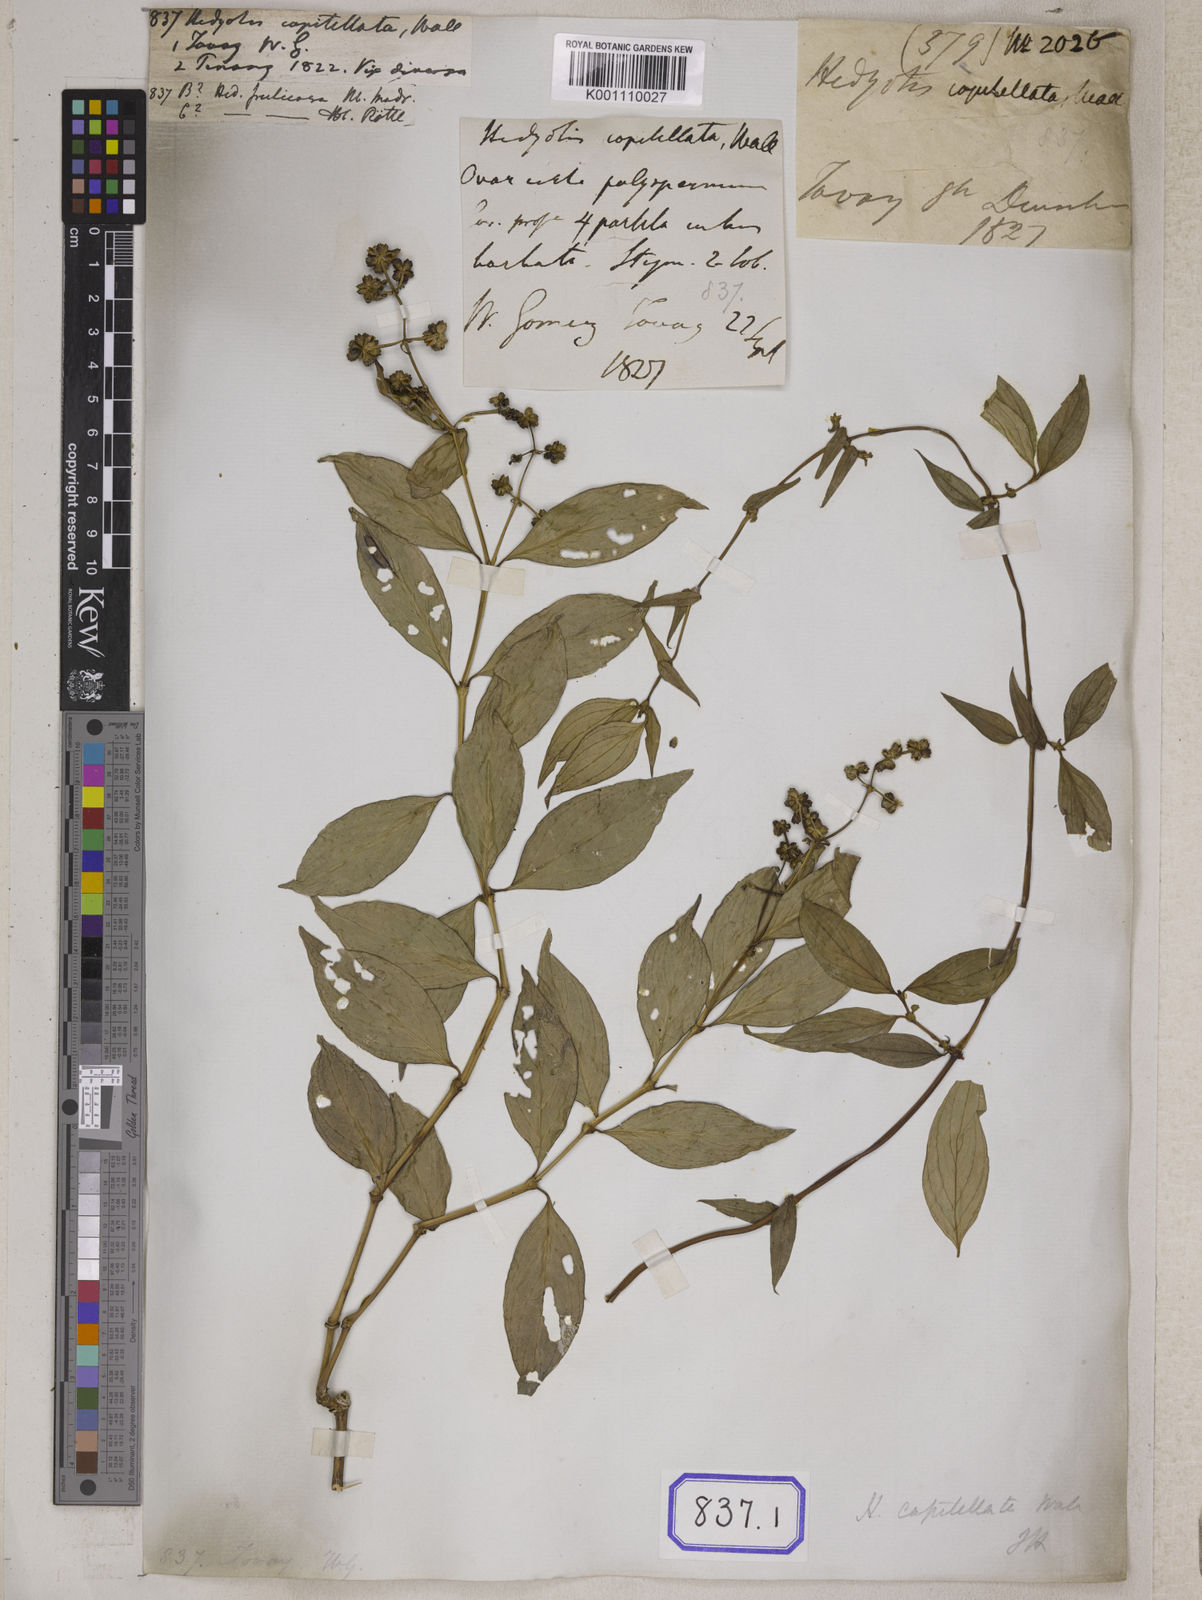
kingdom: Plantae
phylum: Tracheophyta
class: Magnoliopsida
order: Gentianales
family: Rubiaceae
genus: Hedyotis
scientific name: Hedyotis
